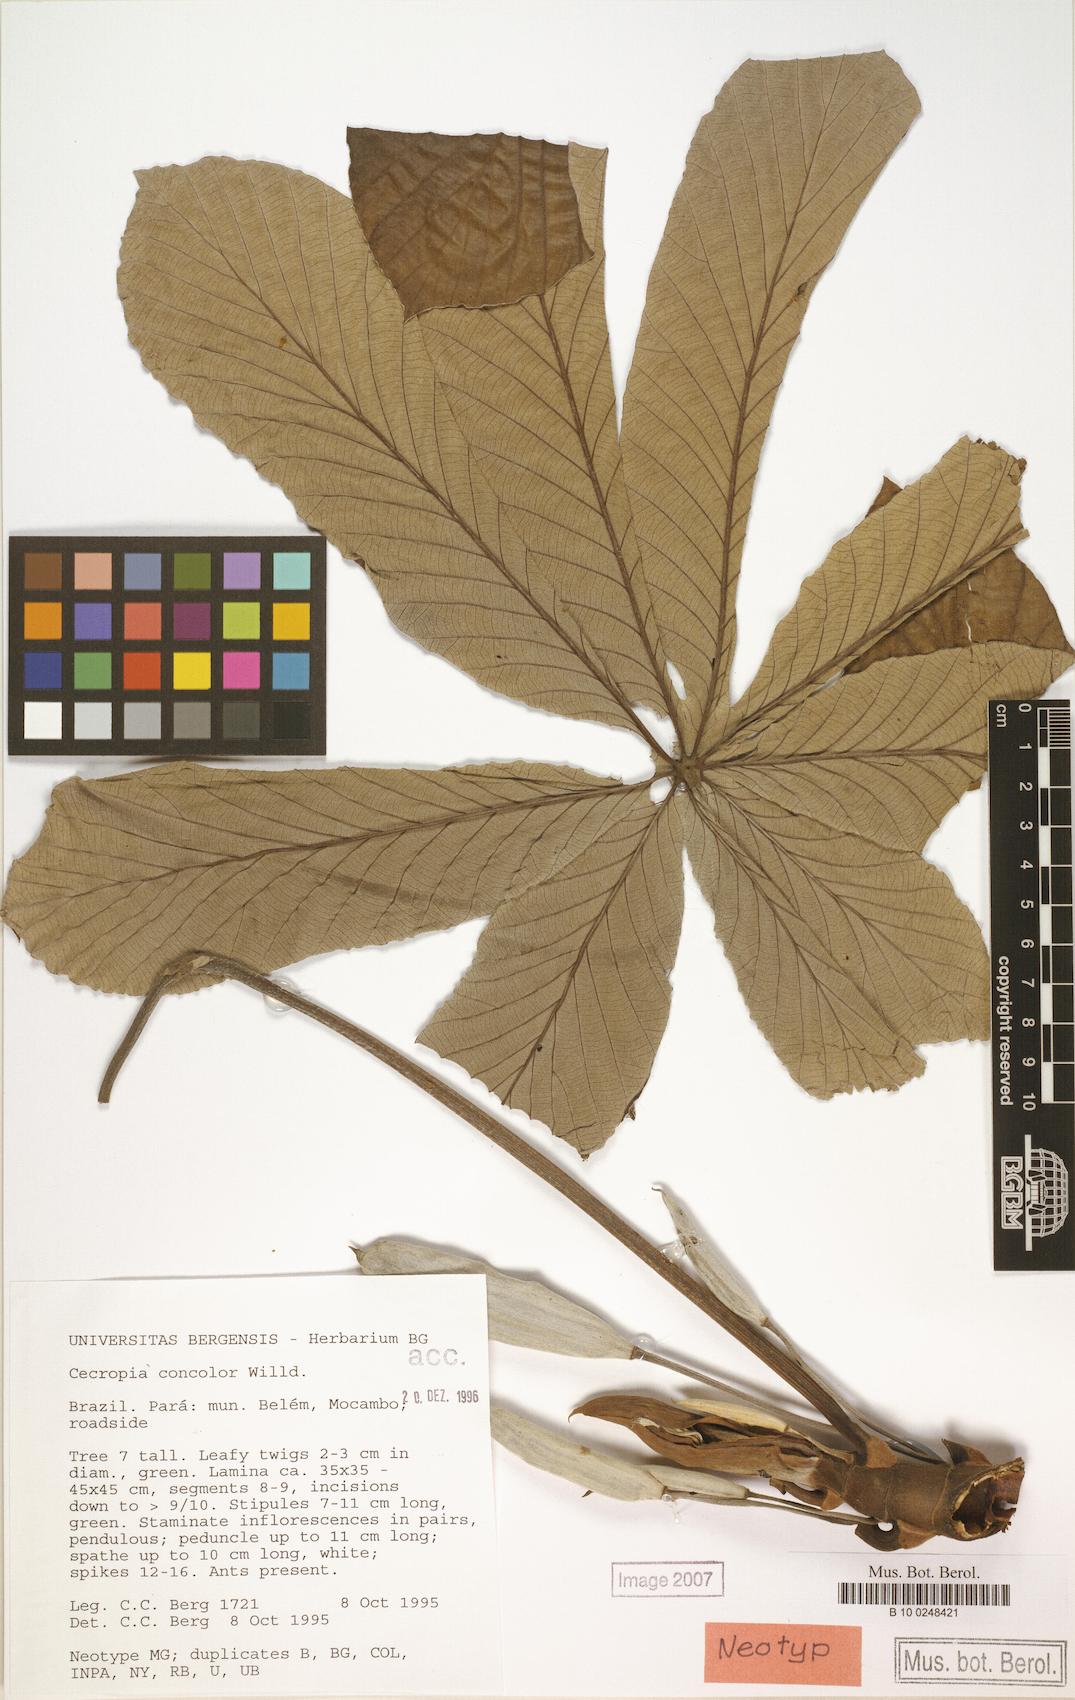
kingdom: Plantae
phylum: Tracheophyta
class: Magnoliopsida
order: Rosales
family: Urticaceae
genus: Cecropia
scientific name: Cecropia concolor
